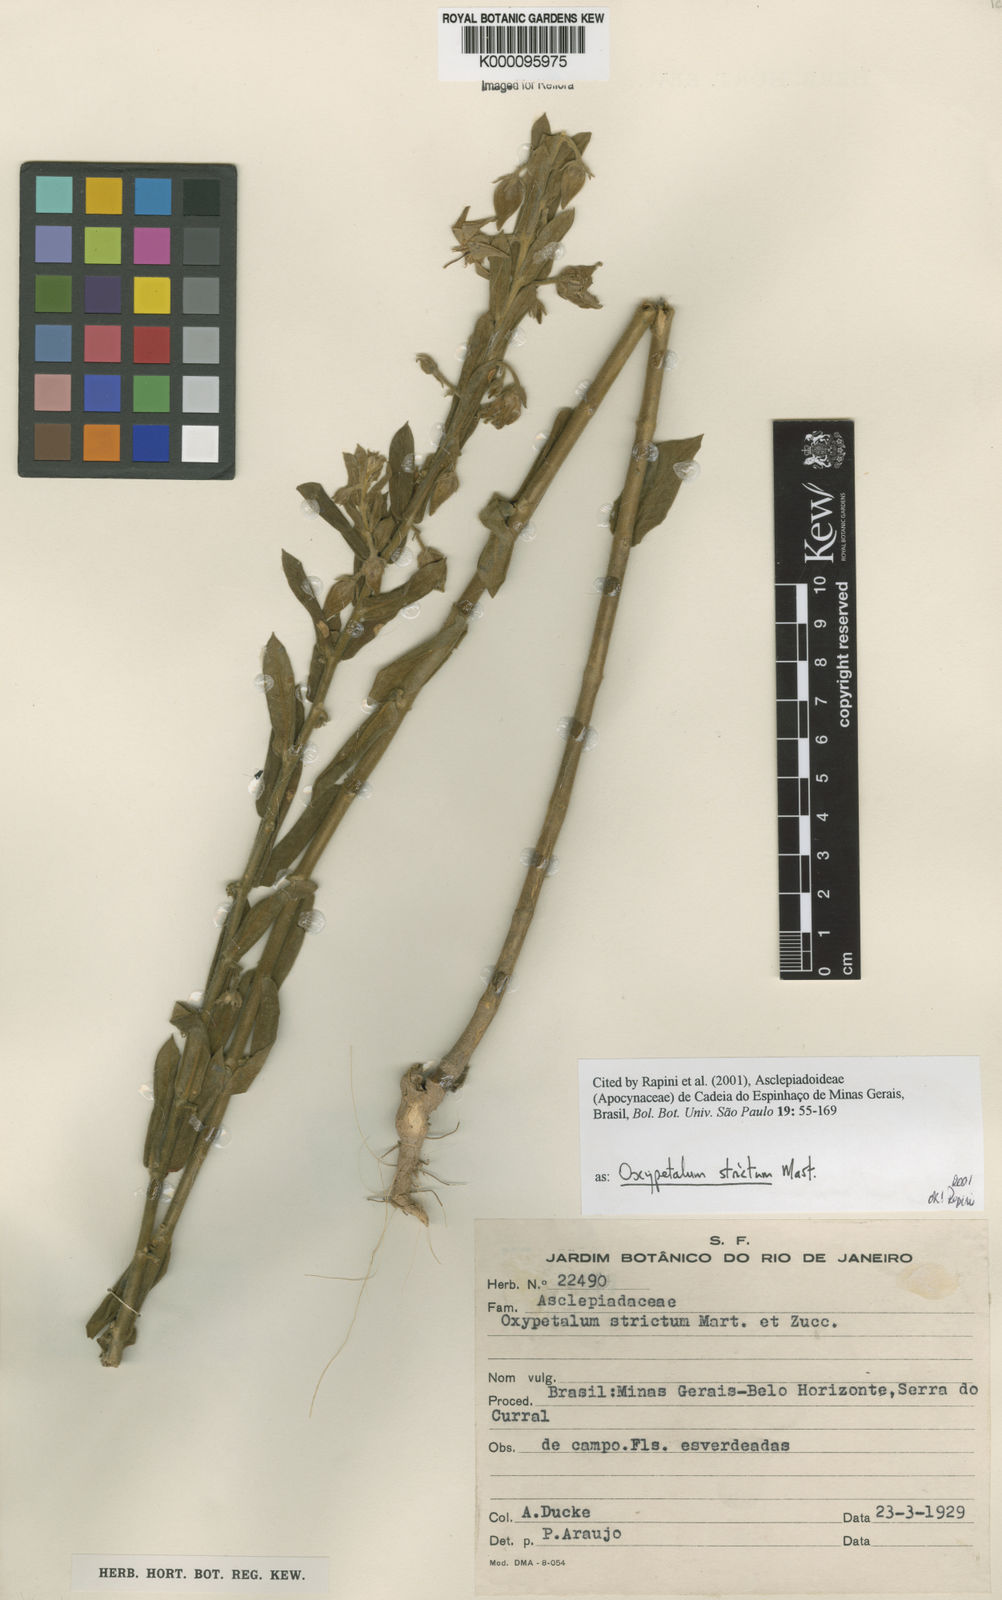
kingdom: Plantae
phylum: Tracheophyta
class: Magnoliopsida
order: Gentianales
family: Apocynaceae
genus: Oxypetalum
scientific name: Oxypetalum strictum
